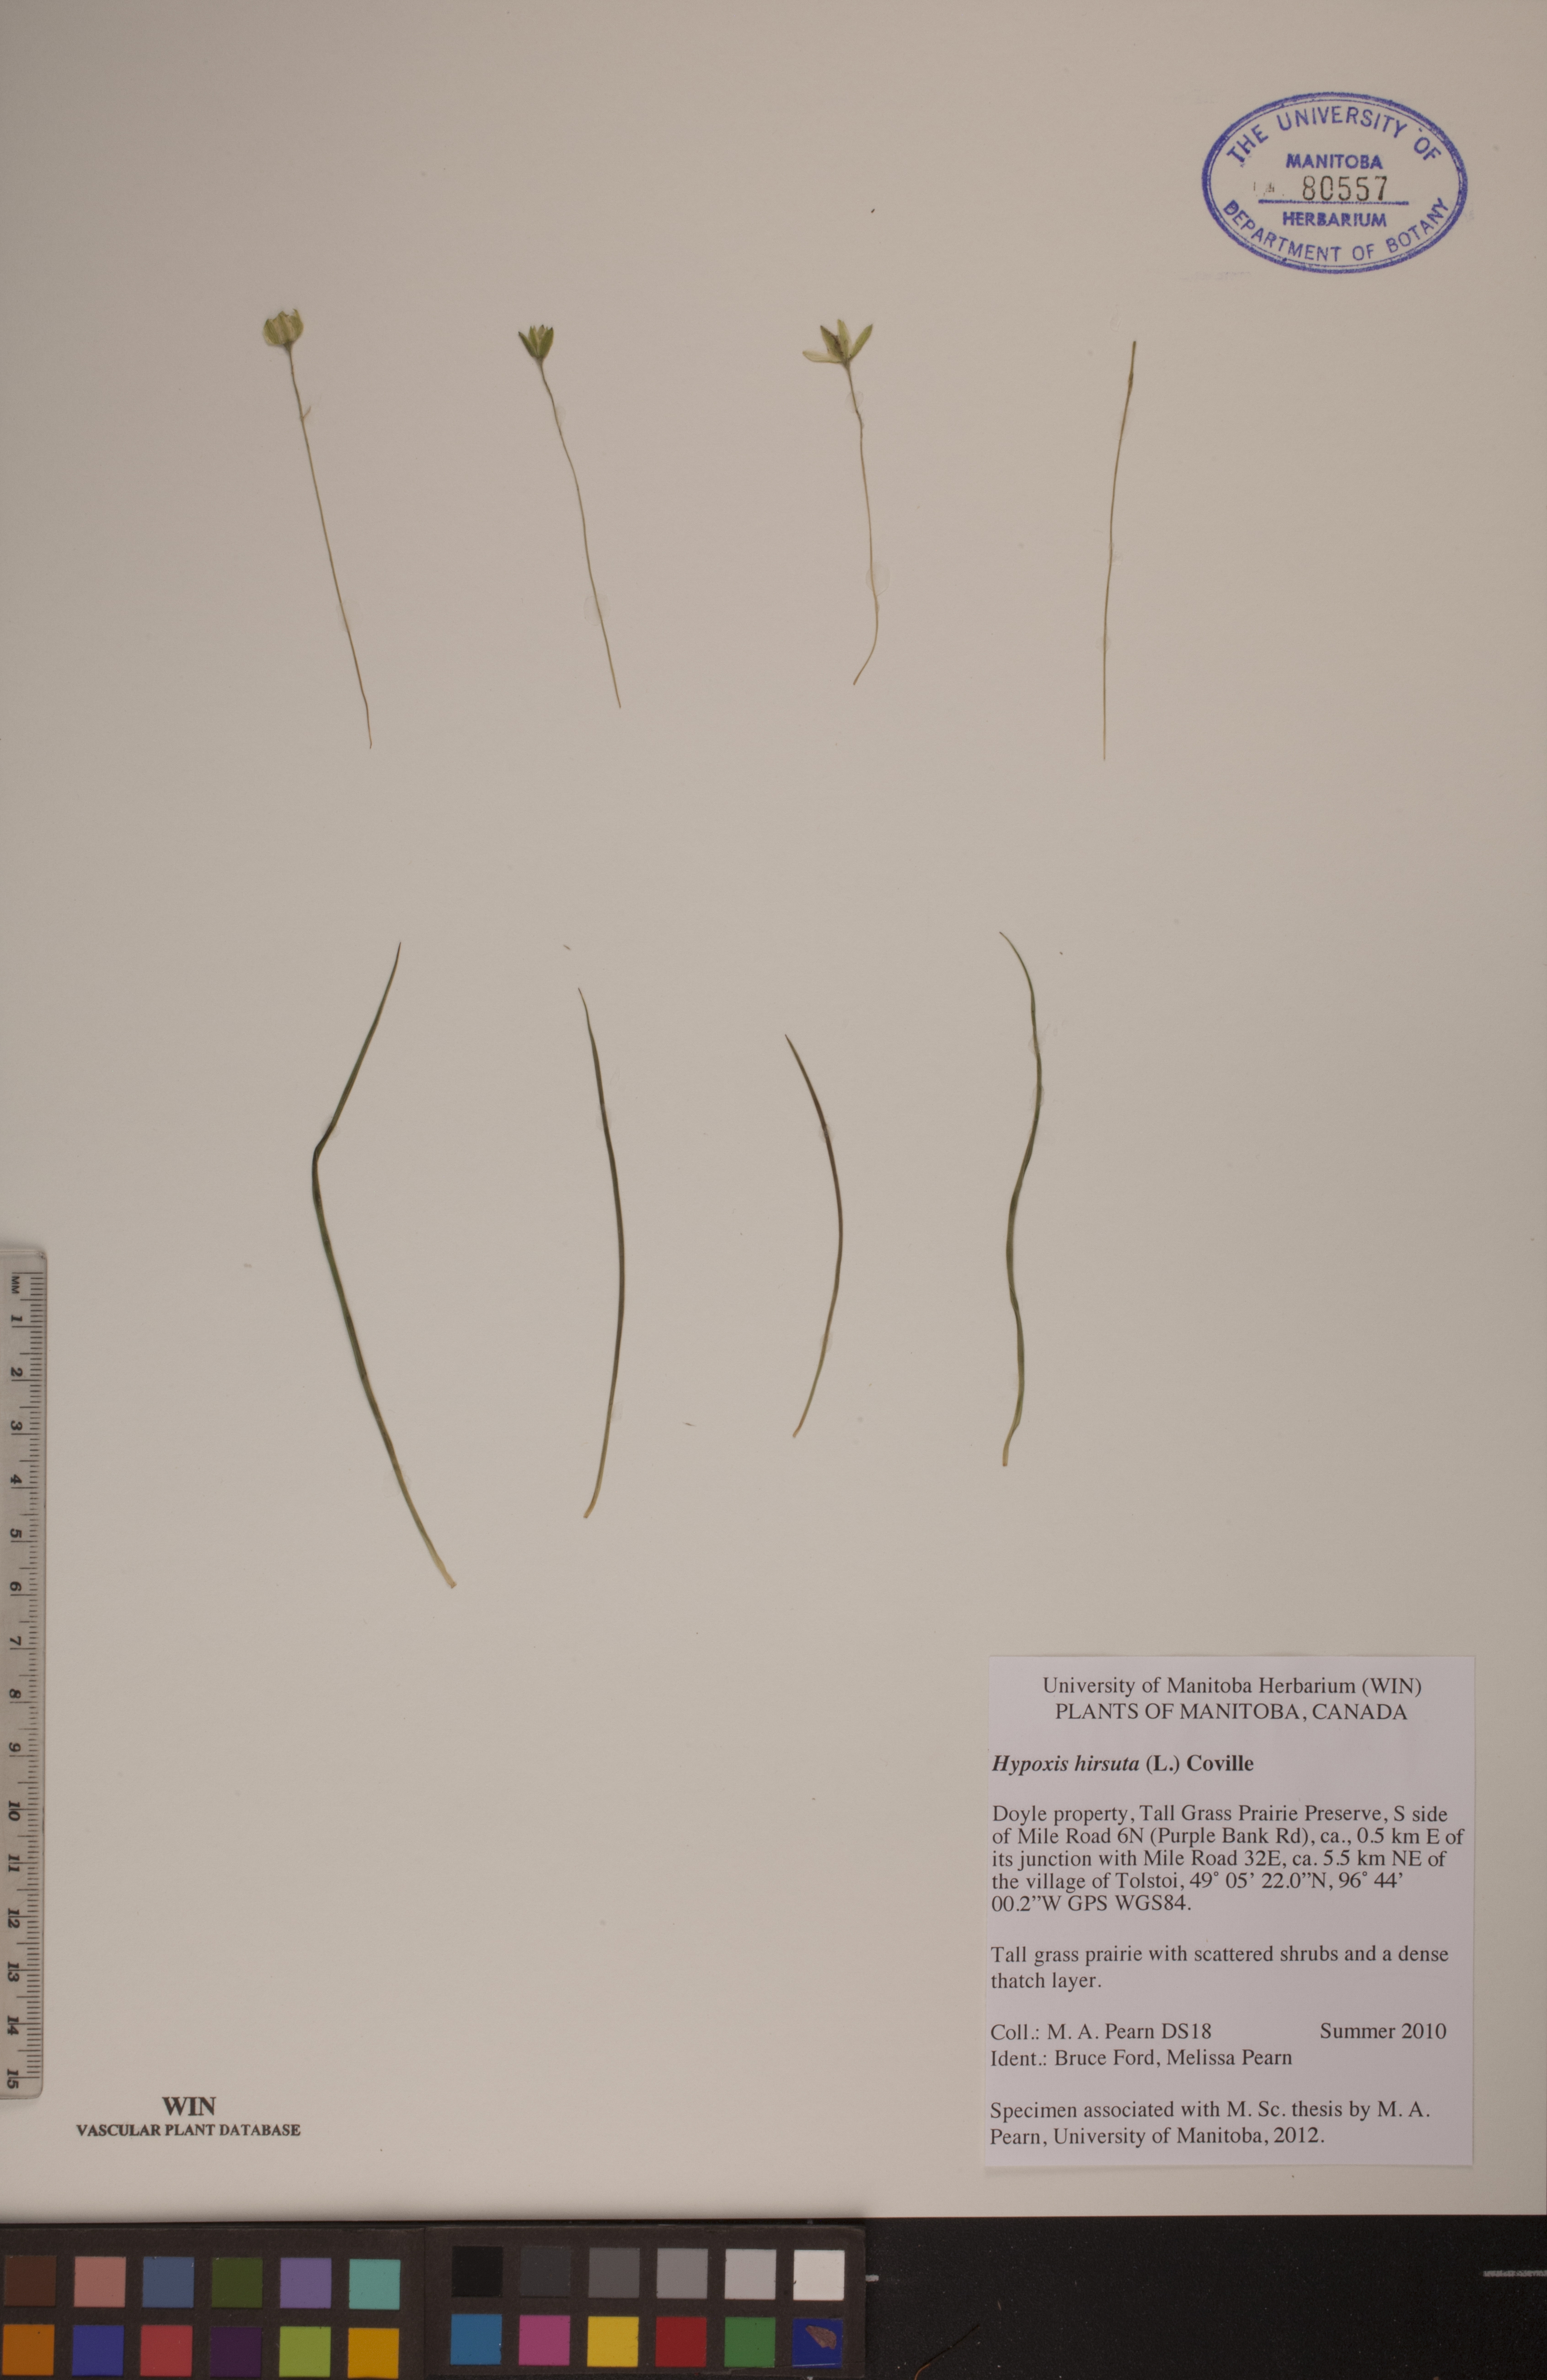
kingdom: Plantae
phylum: Tracheophyta
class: Liliopsida
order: Asparagales
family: Hypoxidaceae
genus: Hypoxis
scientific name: Hypoxis hirsuta
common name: Common goldstar
